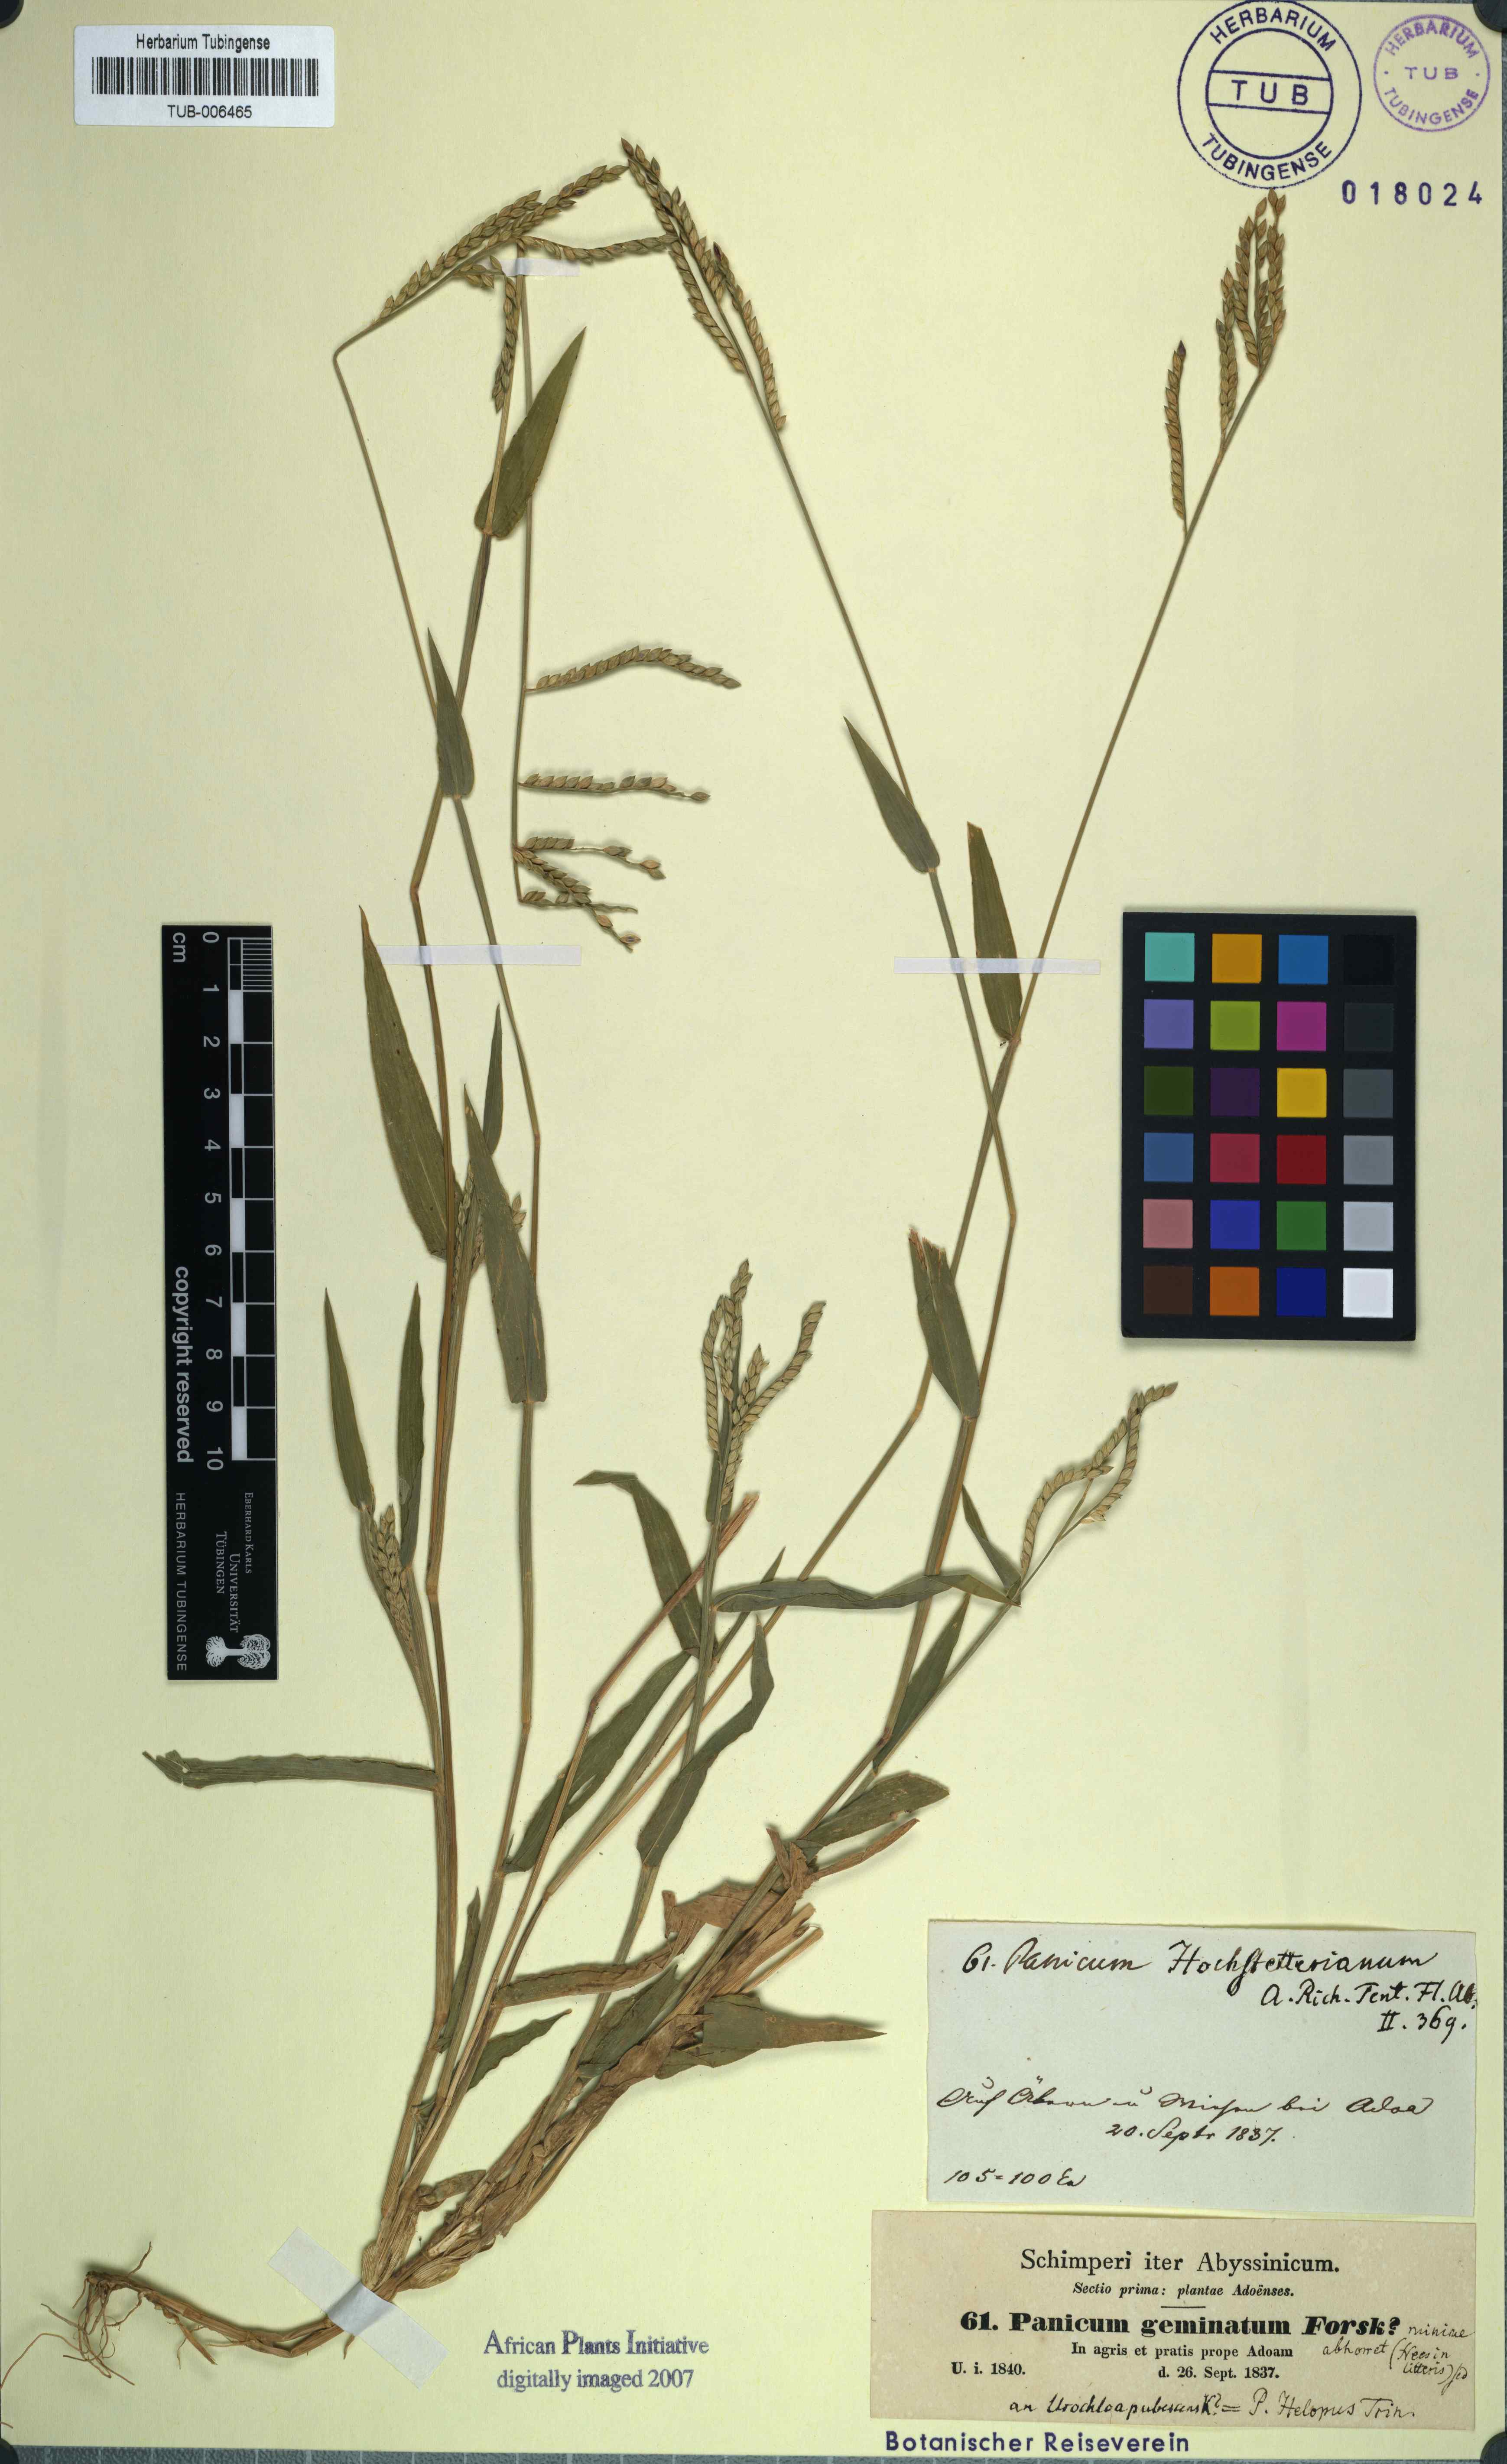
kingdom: Plantae
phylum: Tracheophyta
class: Liliopsida
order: Poales
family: Poaceae
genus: Setaria
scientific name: Setaria geminata
